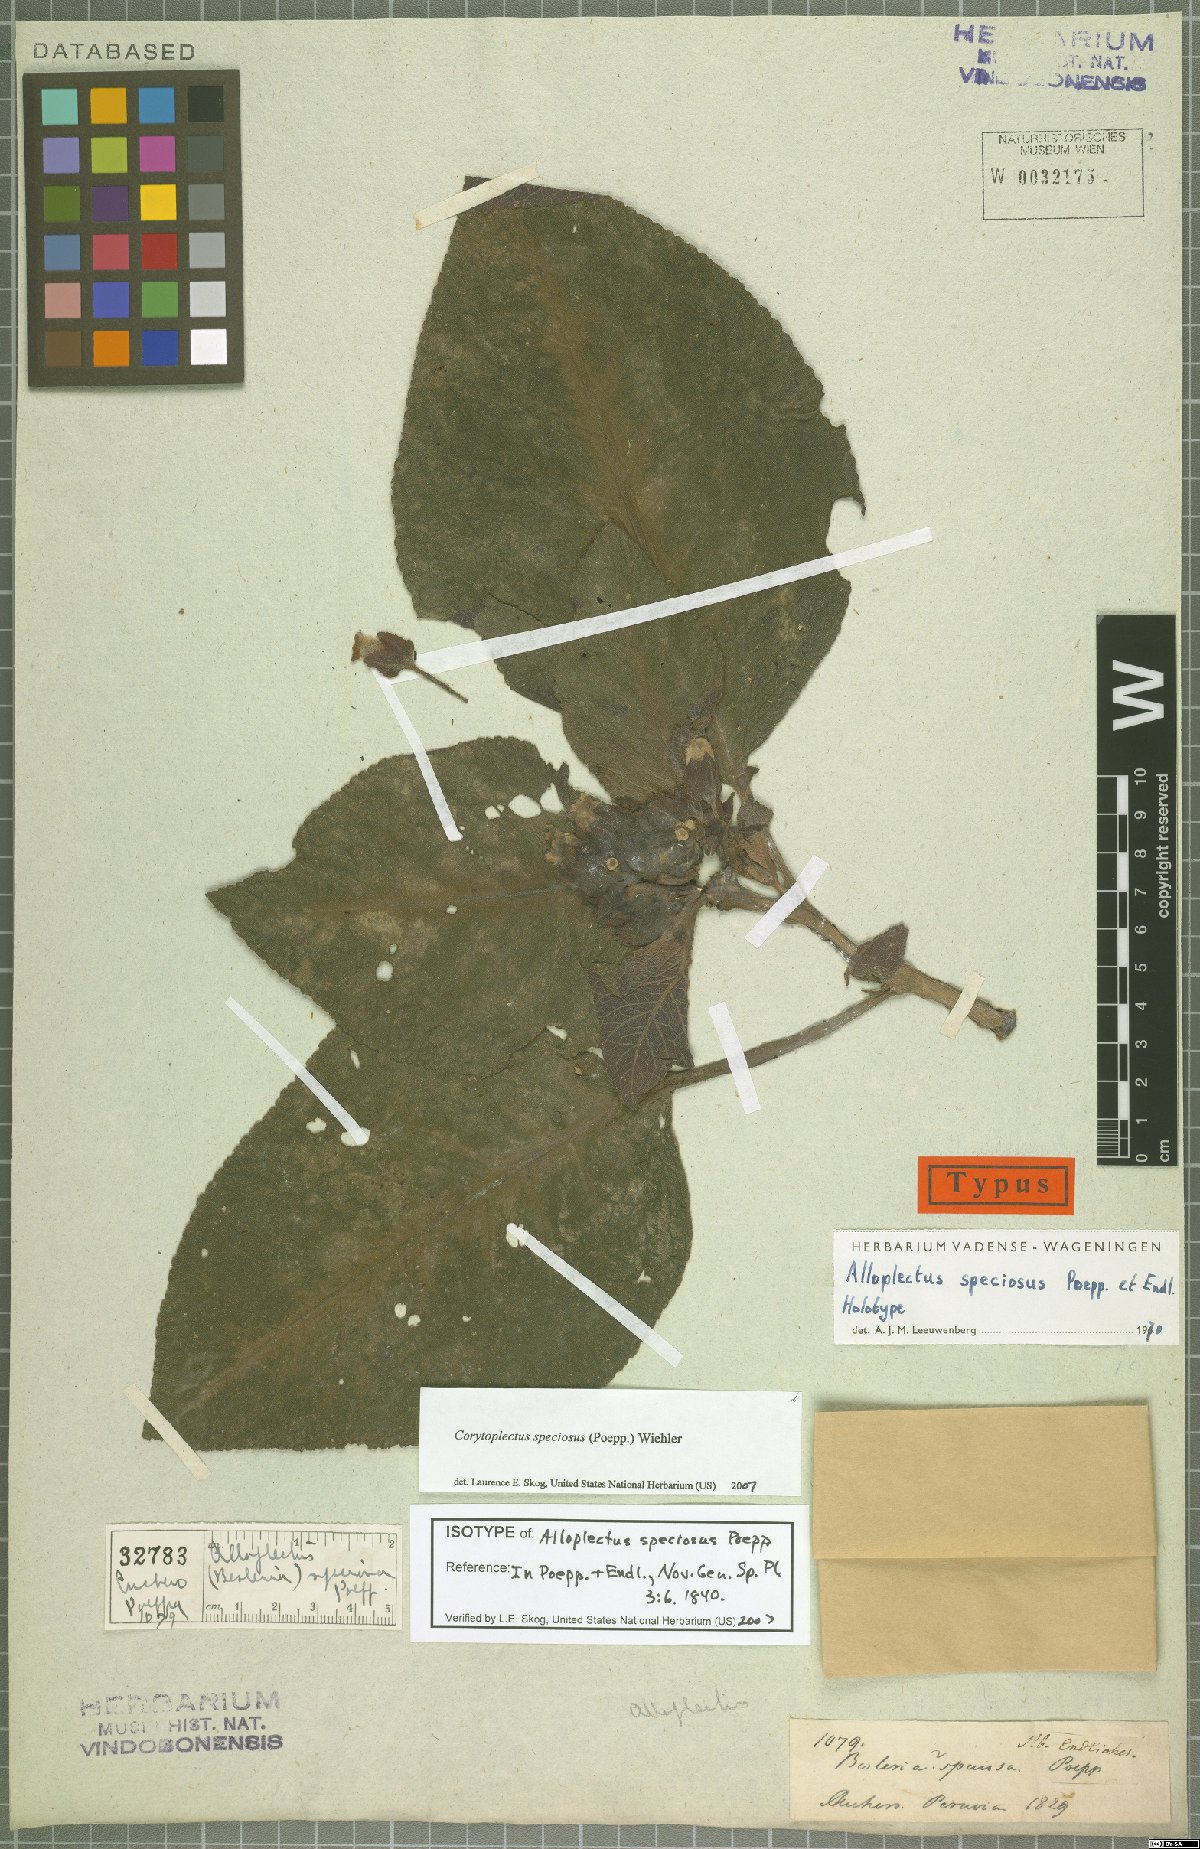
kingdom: Plantae
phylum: Tracheophyta
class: Magnoliopsida
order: Lamiales
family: Gesneriaceae
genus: Corytoplectus
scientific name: Corytoplectus speciosus
